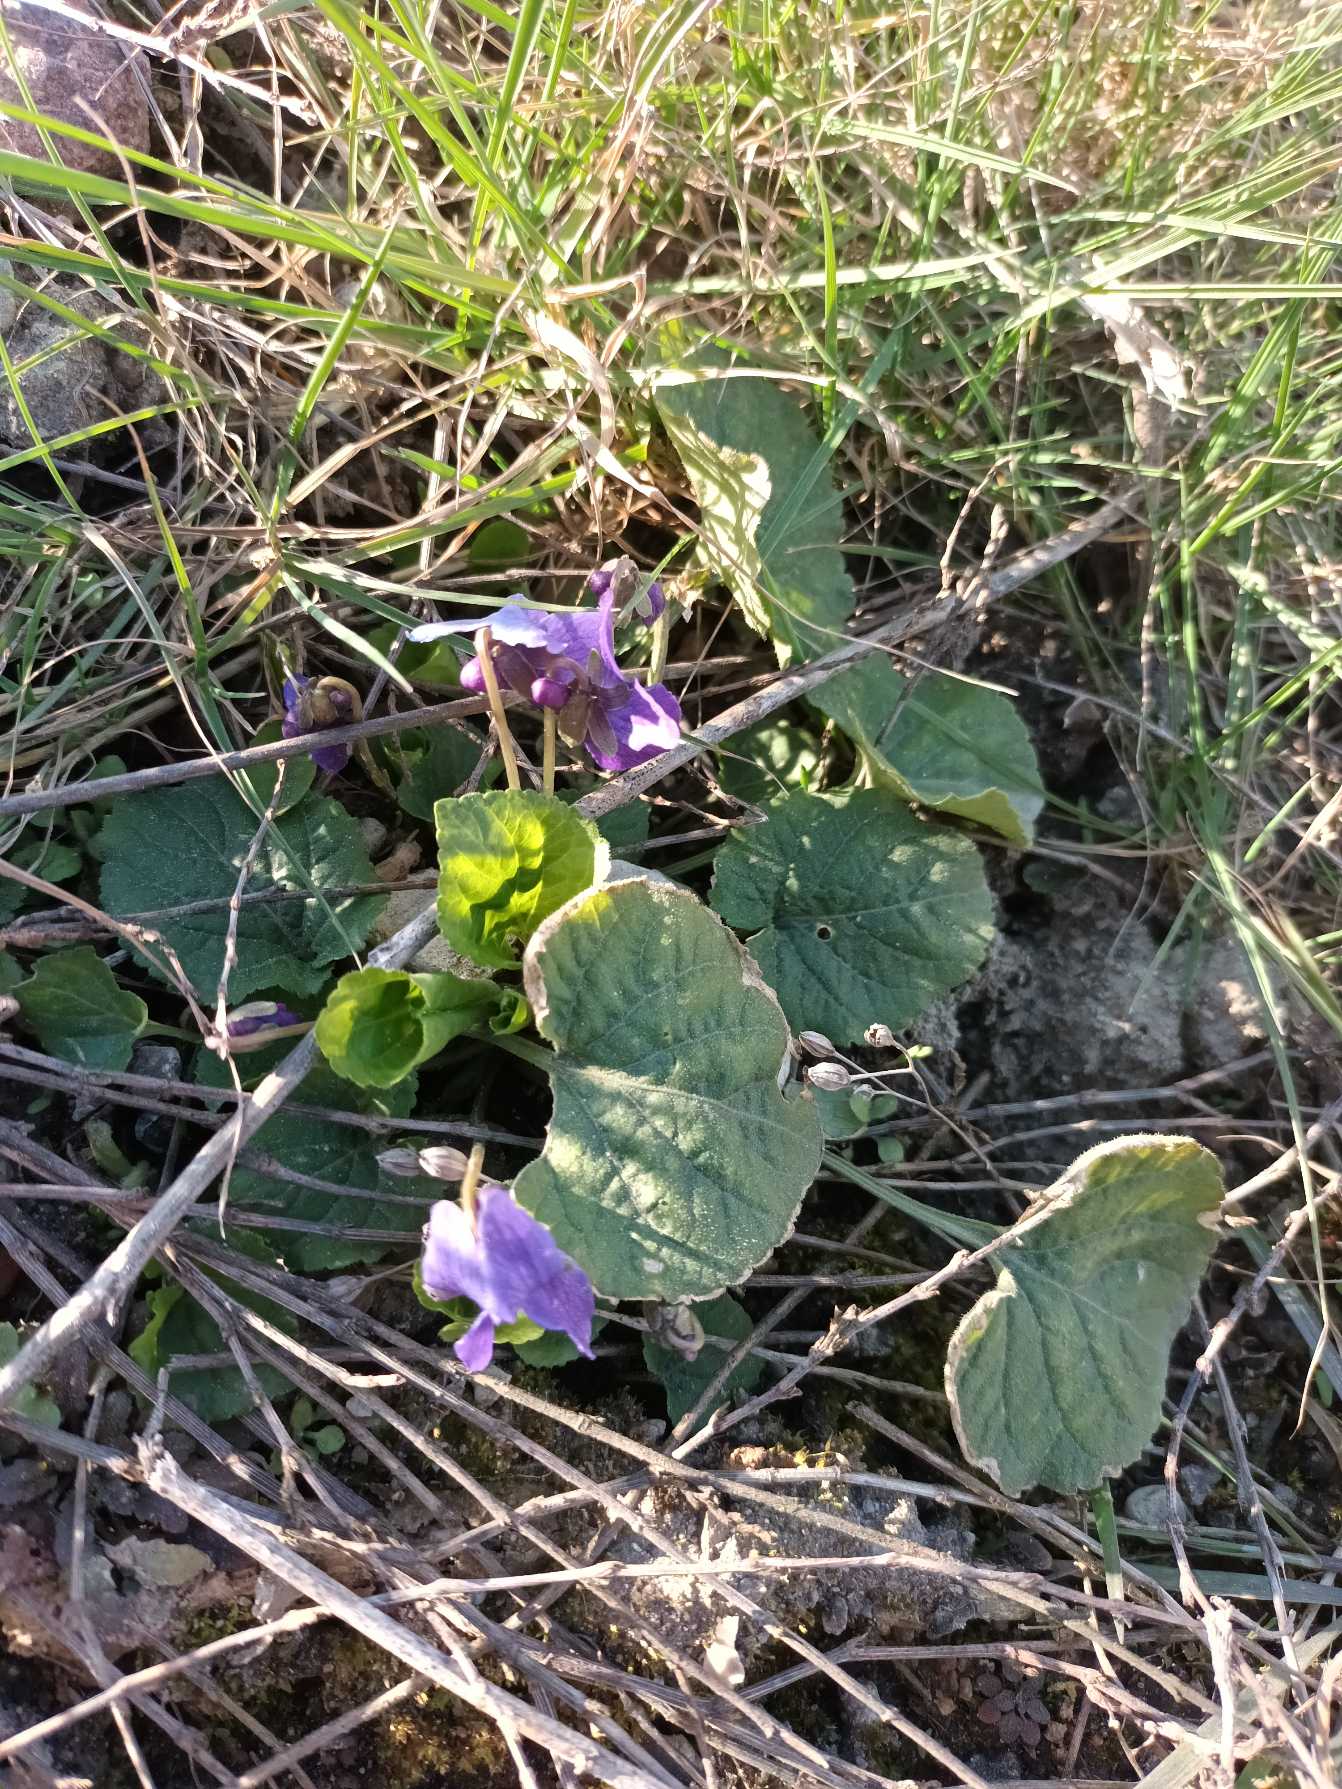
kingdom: Plantae
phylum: Tracheophyta
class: Magnoliopsida
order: Malpighiales
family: Violaceae
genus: Viola
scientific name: Viola odorata
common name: Marts-viol
